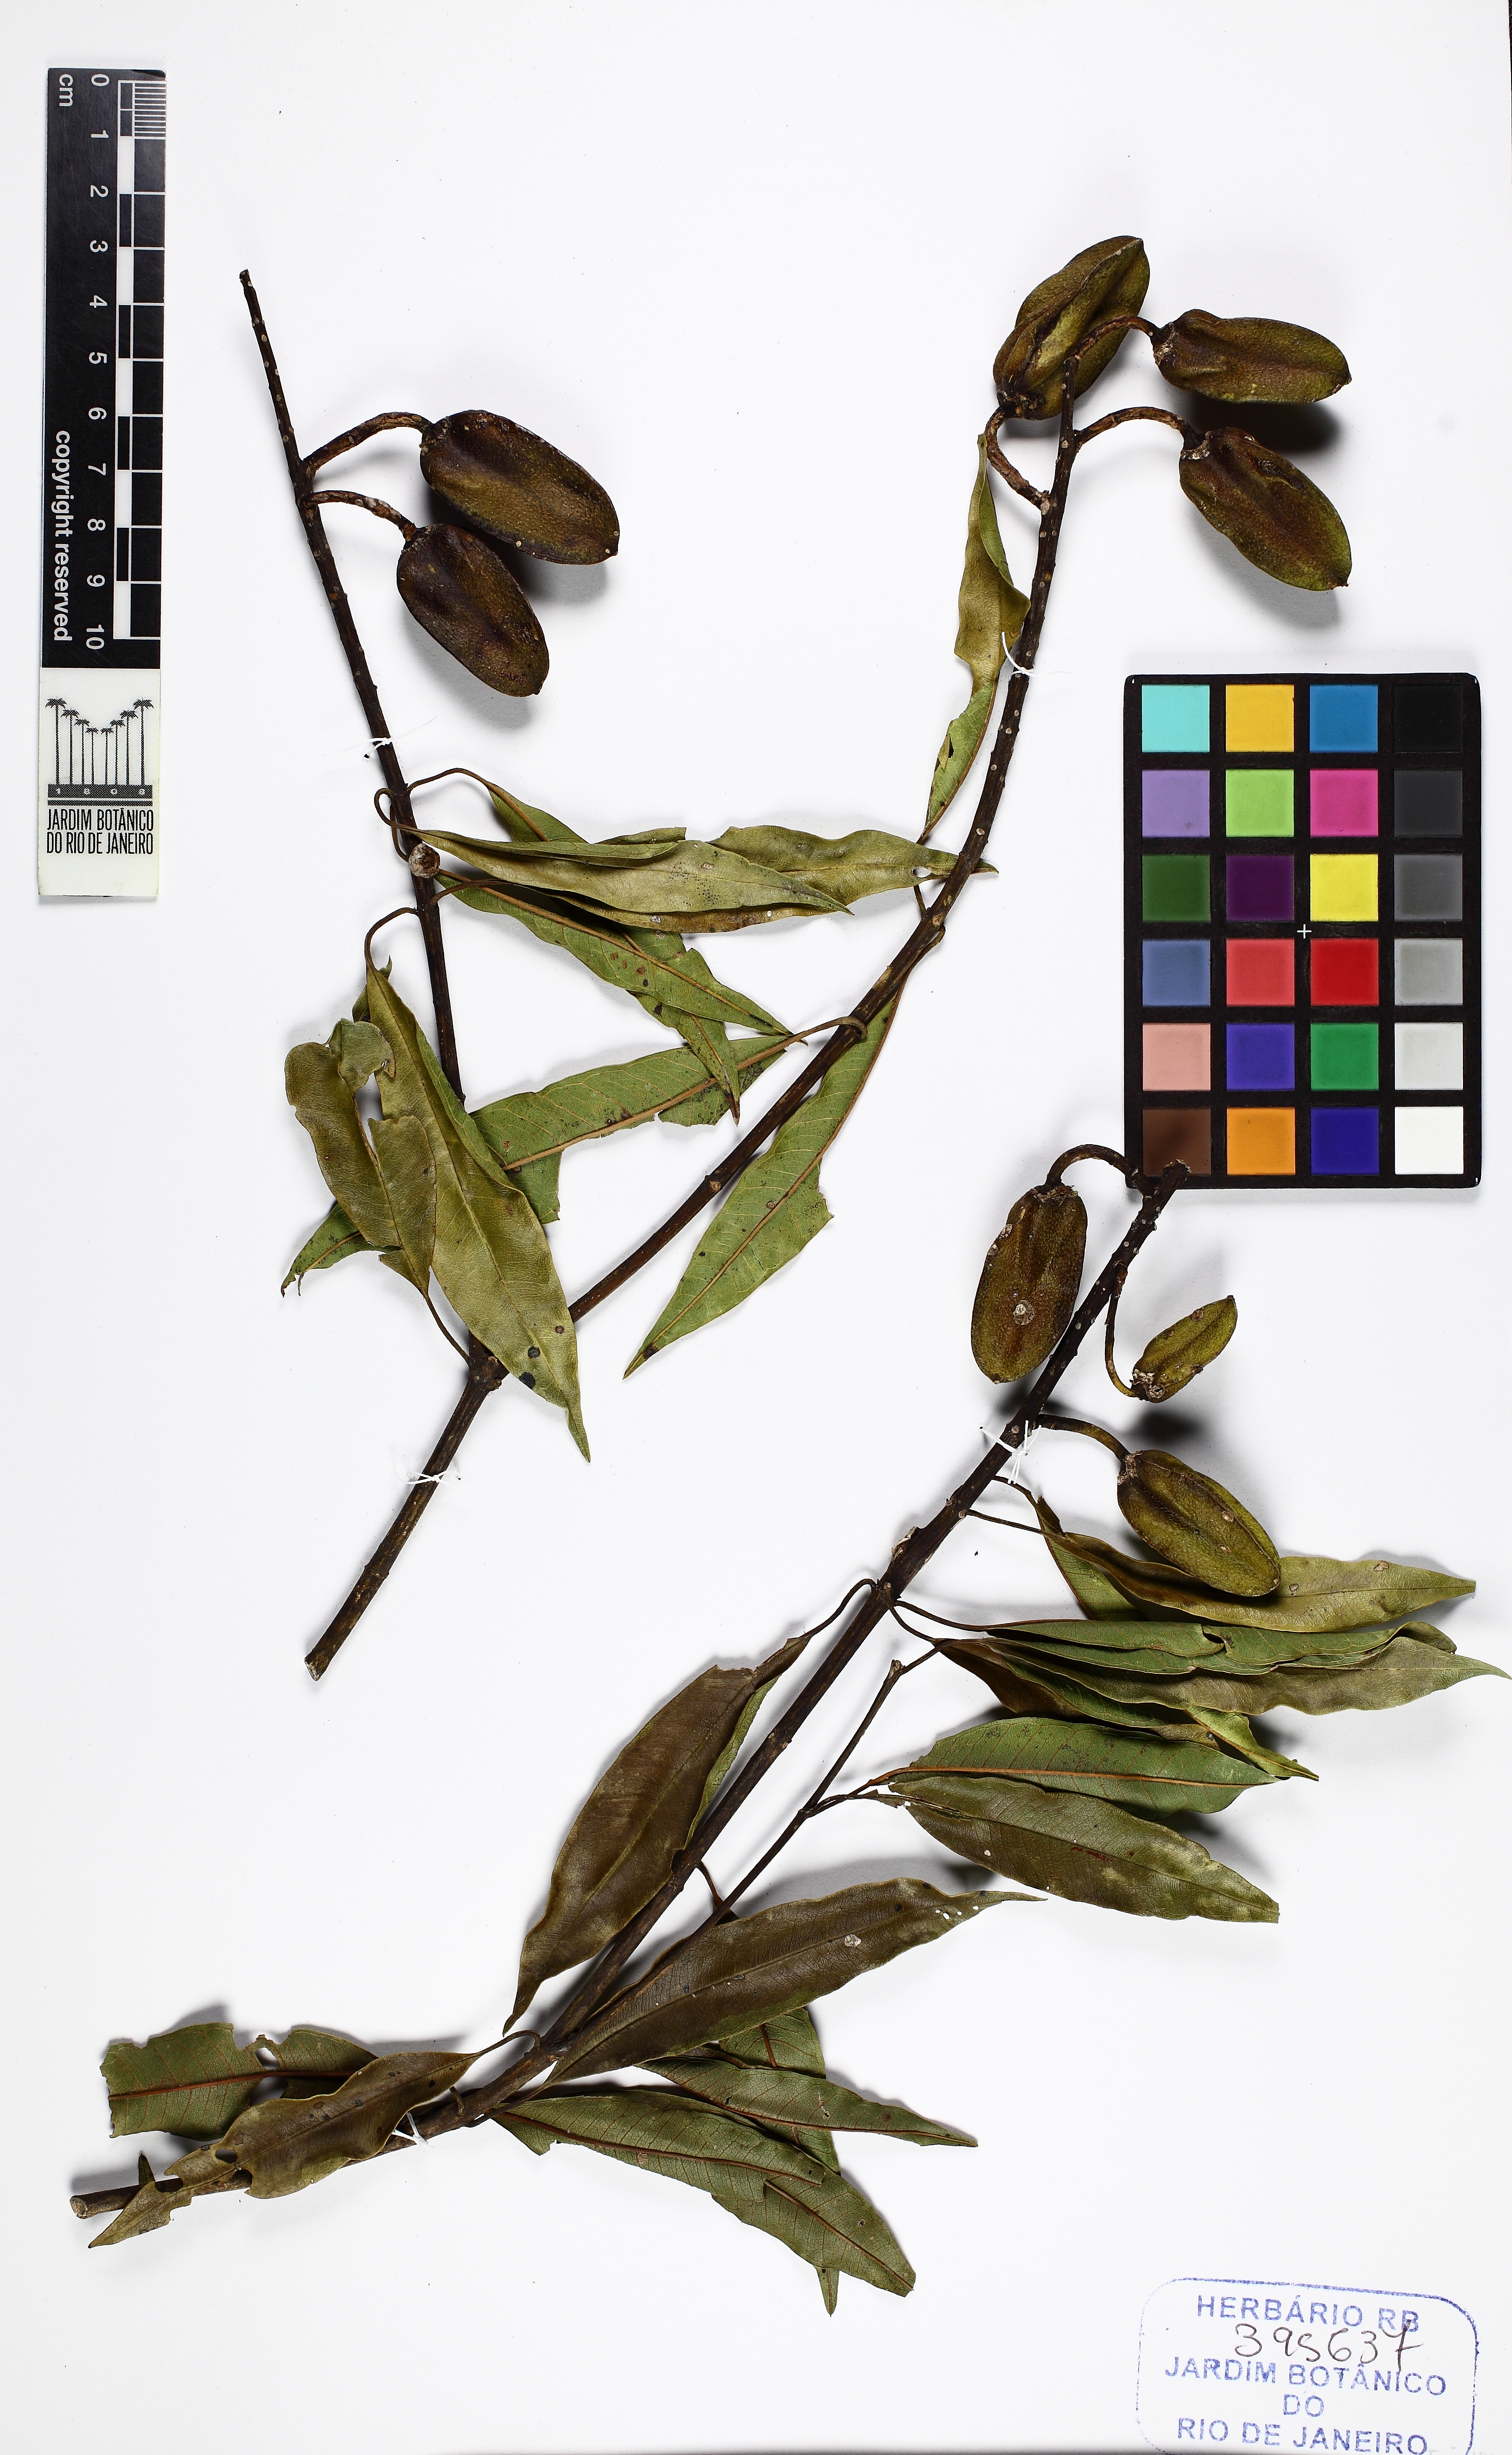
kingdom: Plantae
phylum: Tracheophyta
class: Magnoliopsida
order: Myrtales
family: Vochysiaceae
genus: Vochysia
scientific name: Vochysia laurifolia
